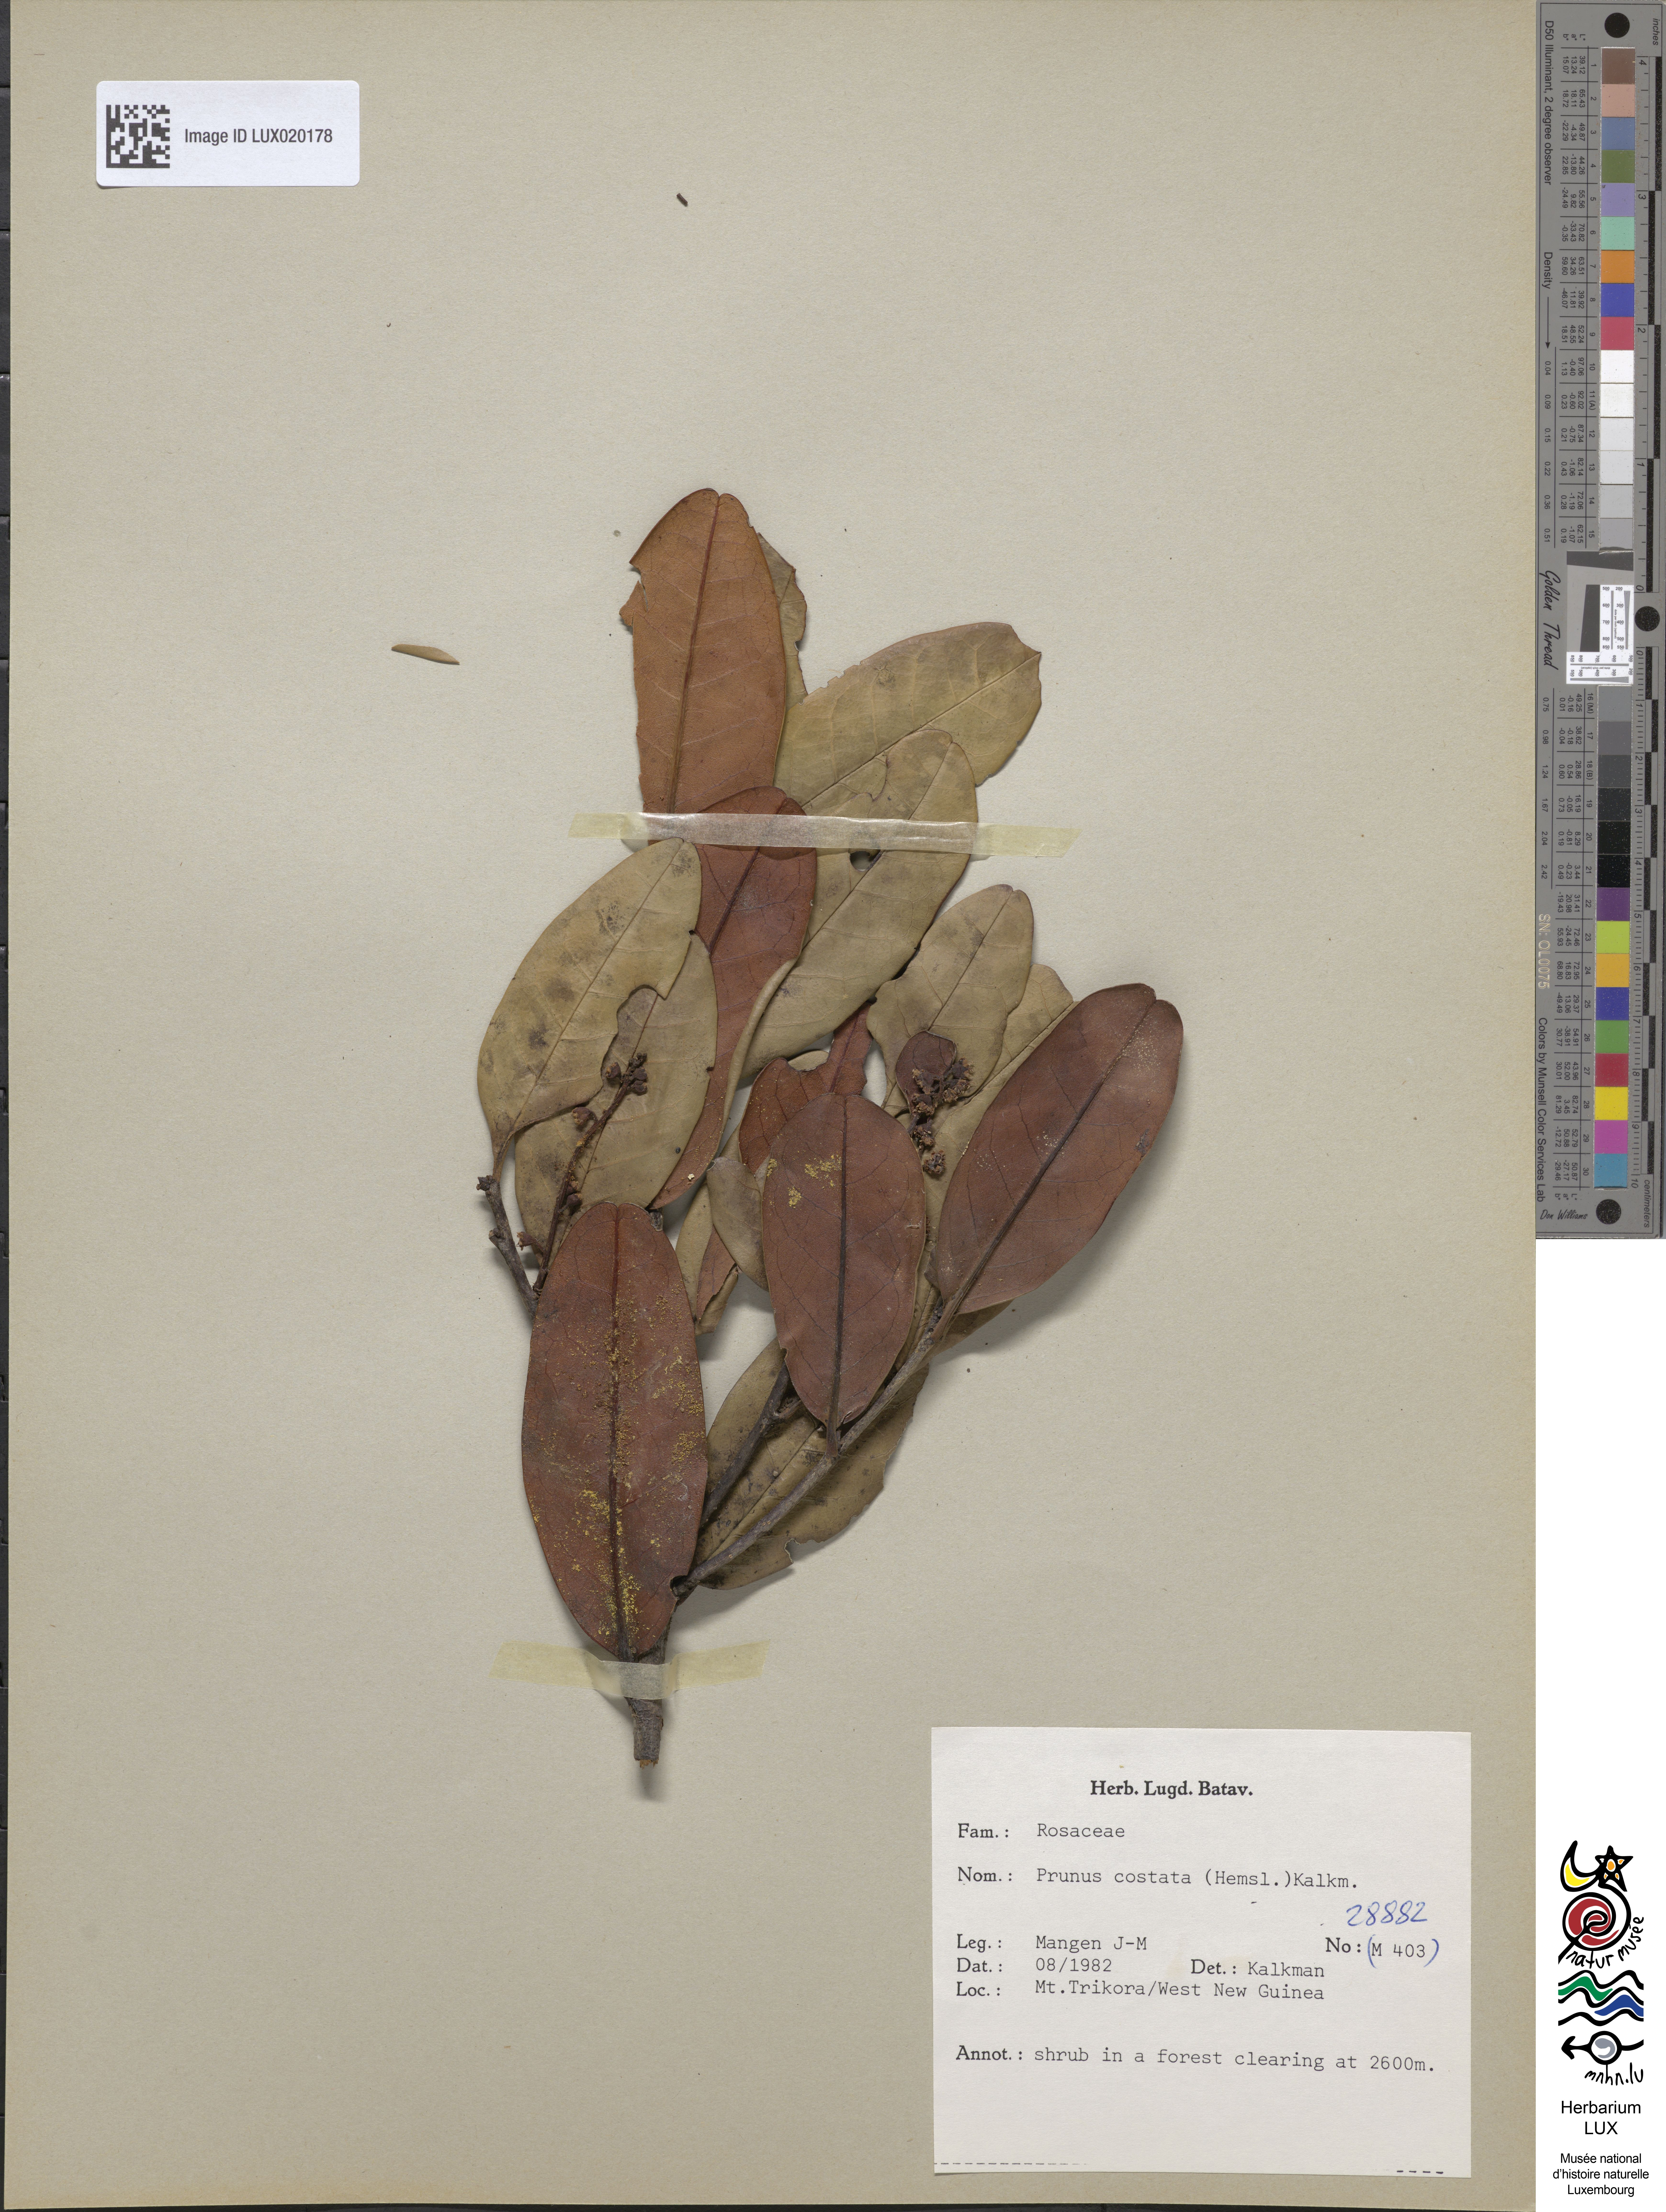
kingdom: Plantae
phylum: Tracheophyta
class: Magnoliopsida
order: Rosales
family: Rosaceae
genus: Prunus
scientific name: Prunus costata
